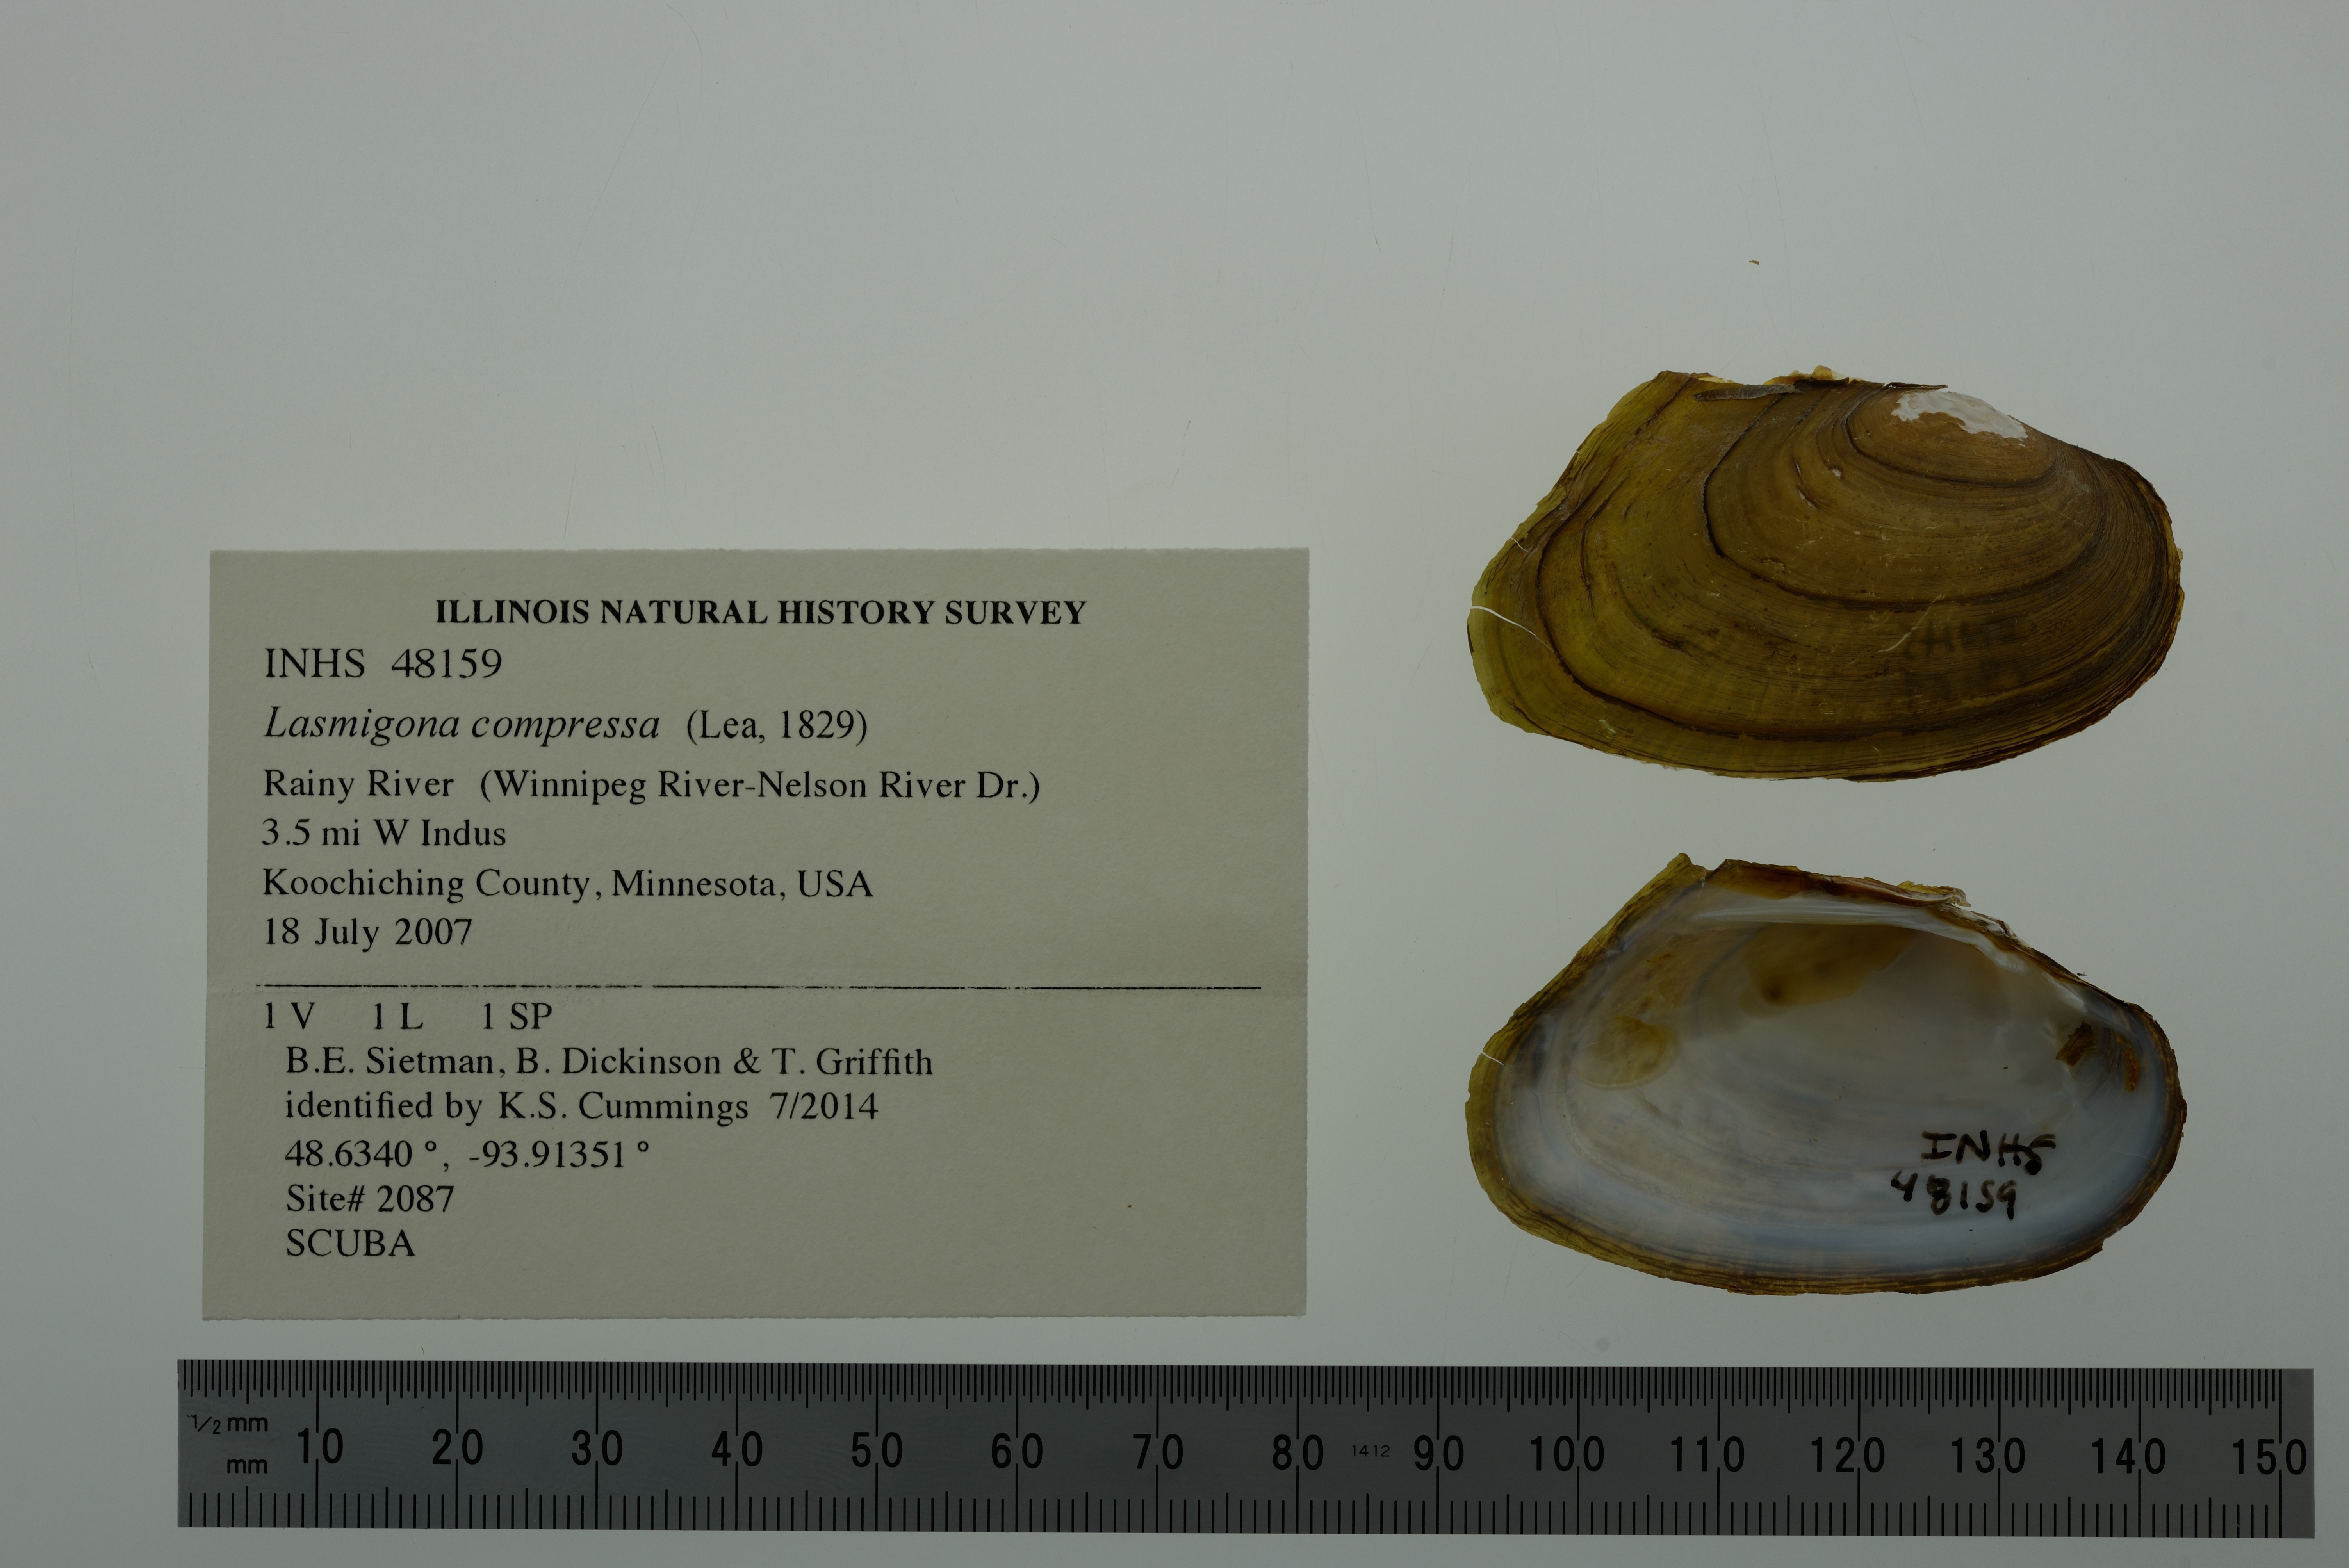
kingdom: Animalia
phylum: Mollusca
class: Bivalvia
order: Unionida
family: Unionidae
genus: Lasmigona
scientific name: Lasmigona compressa
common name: Creek heelsplitter
